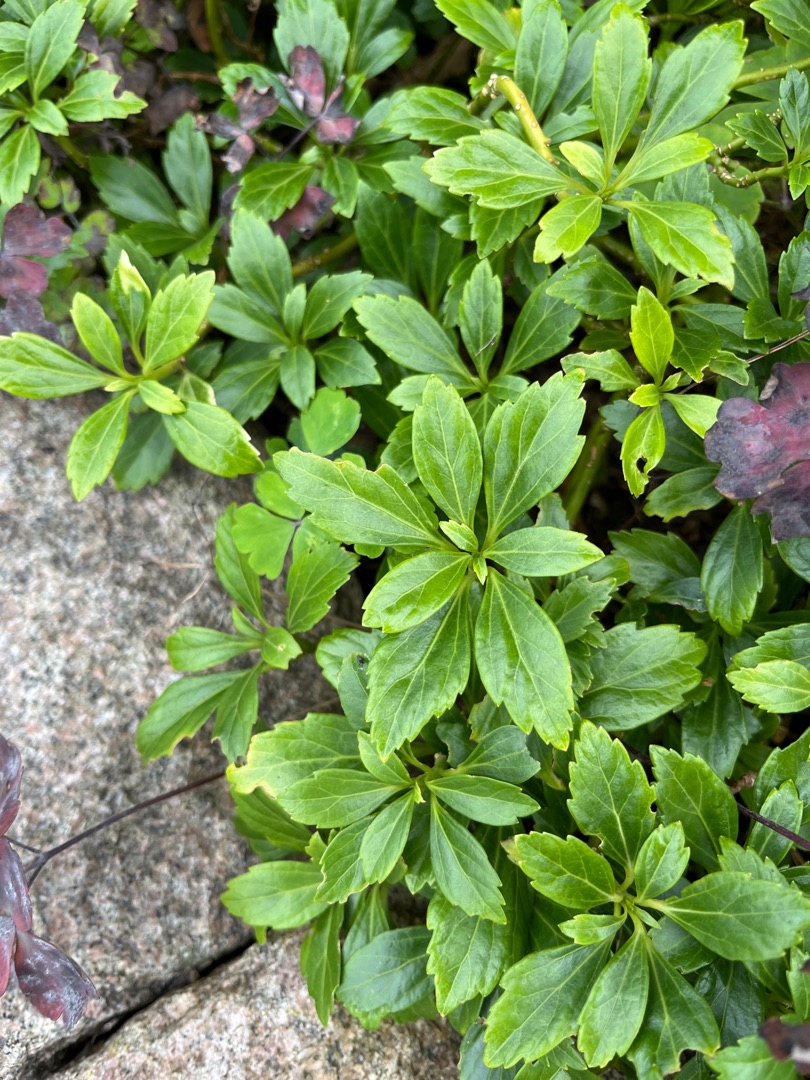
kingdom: Plantae
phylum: Tracheophyta
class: Magnoliopsida
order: Buxales
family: Buxaceae
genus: Pachysandra
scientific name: Pachysandra terminalis
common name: Vinterglans
